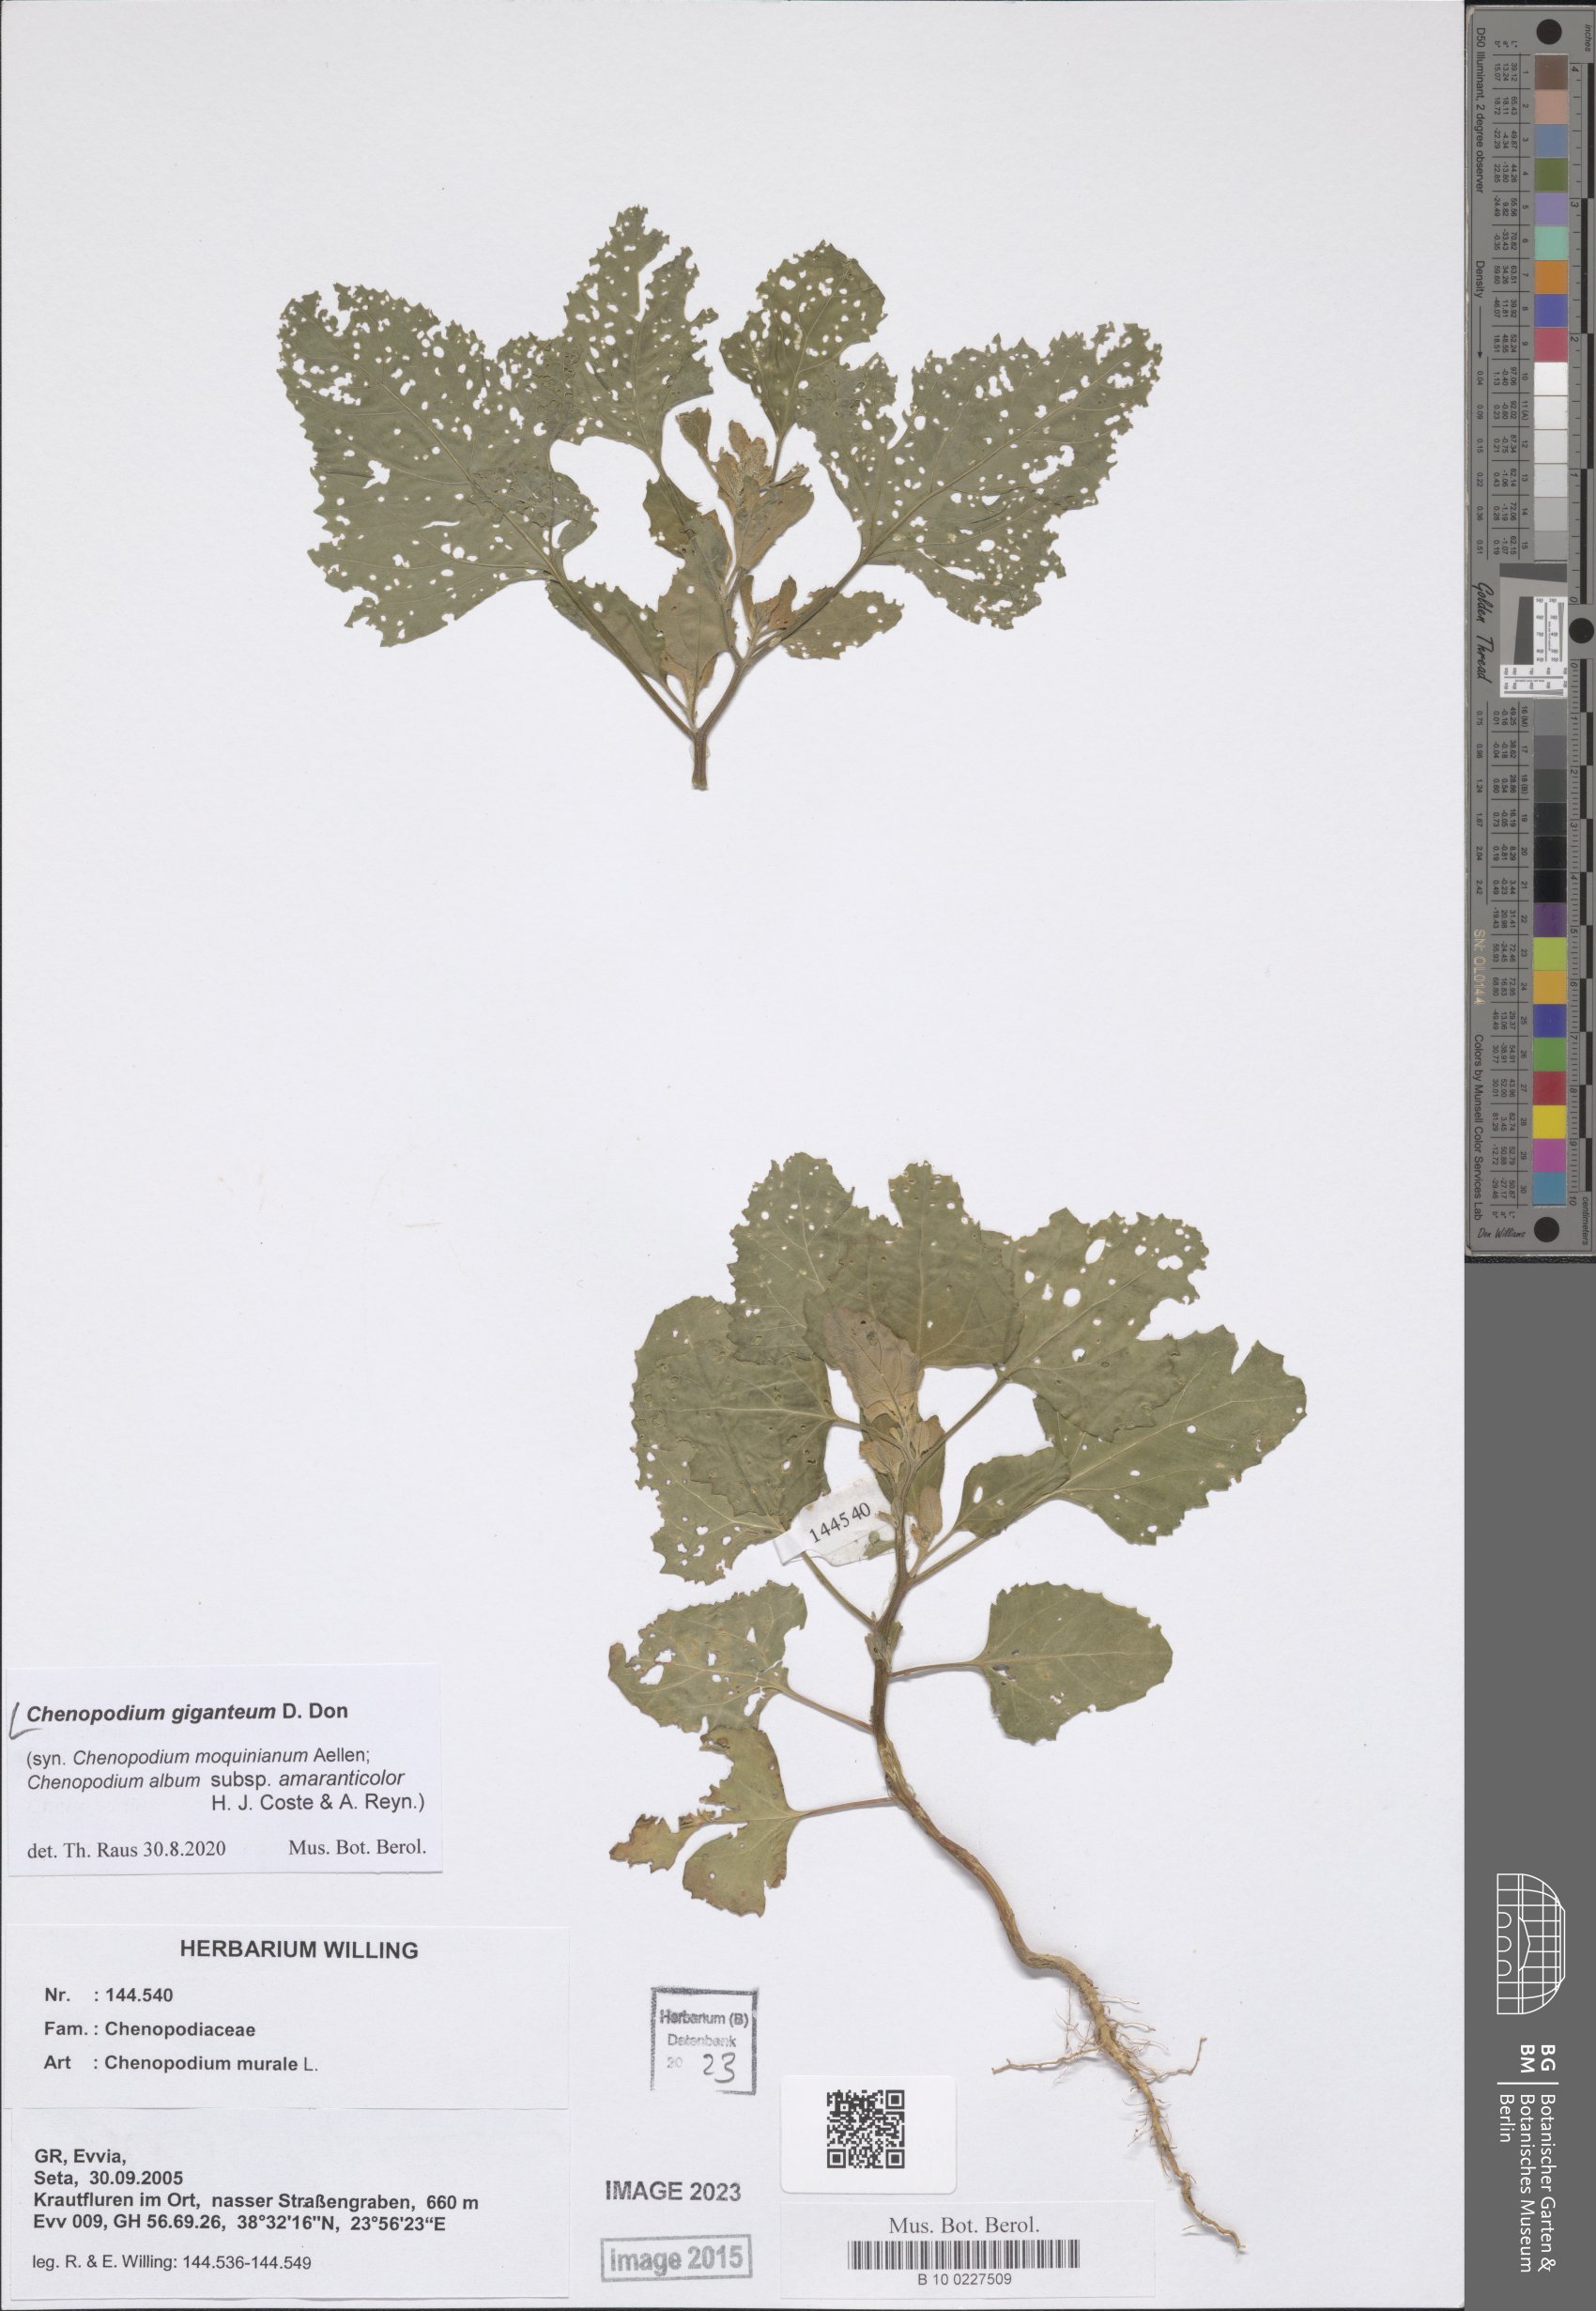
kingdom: Plantae
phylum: Tracheophyta
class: Magnoliopsida
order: Caryophyllales
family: Amaranthaceae
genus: Chenopodium
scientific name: Chenopodium giganteum
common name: Magentaspreen
